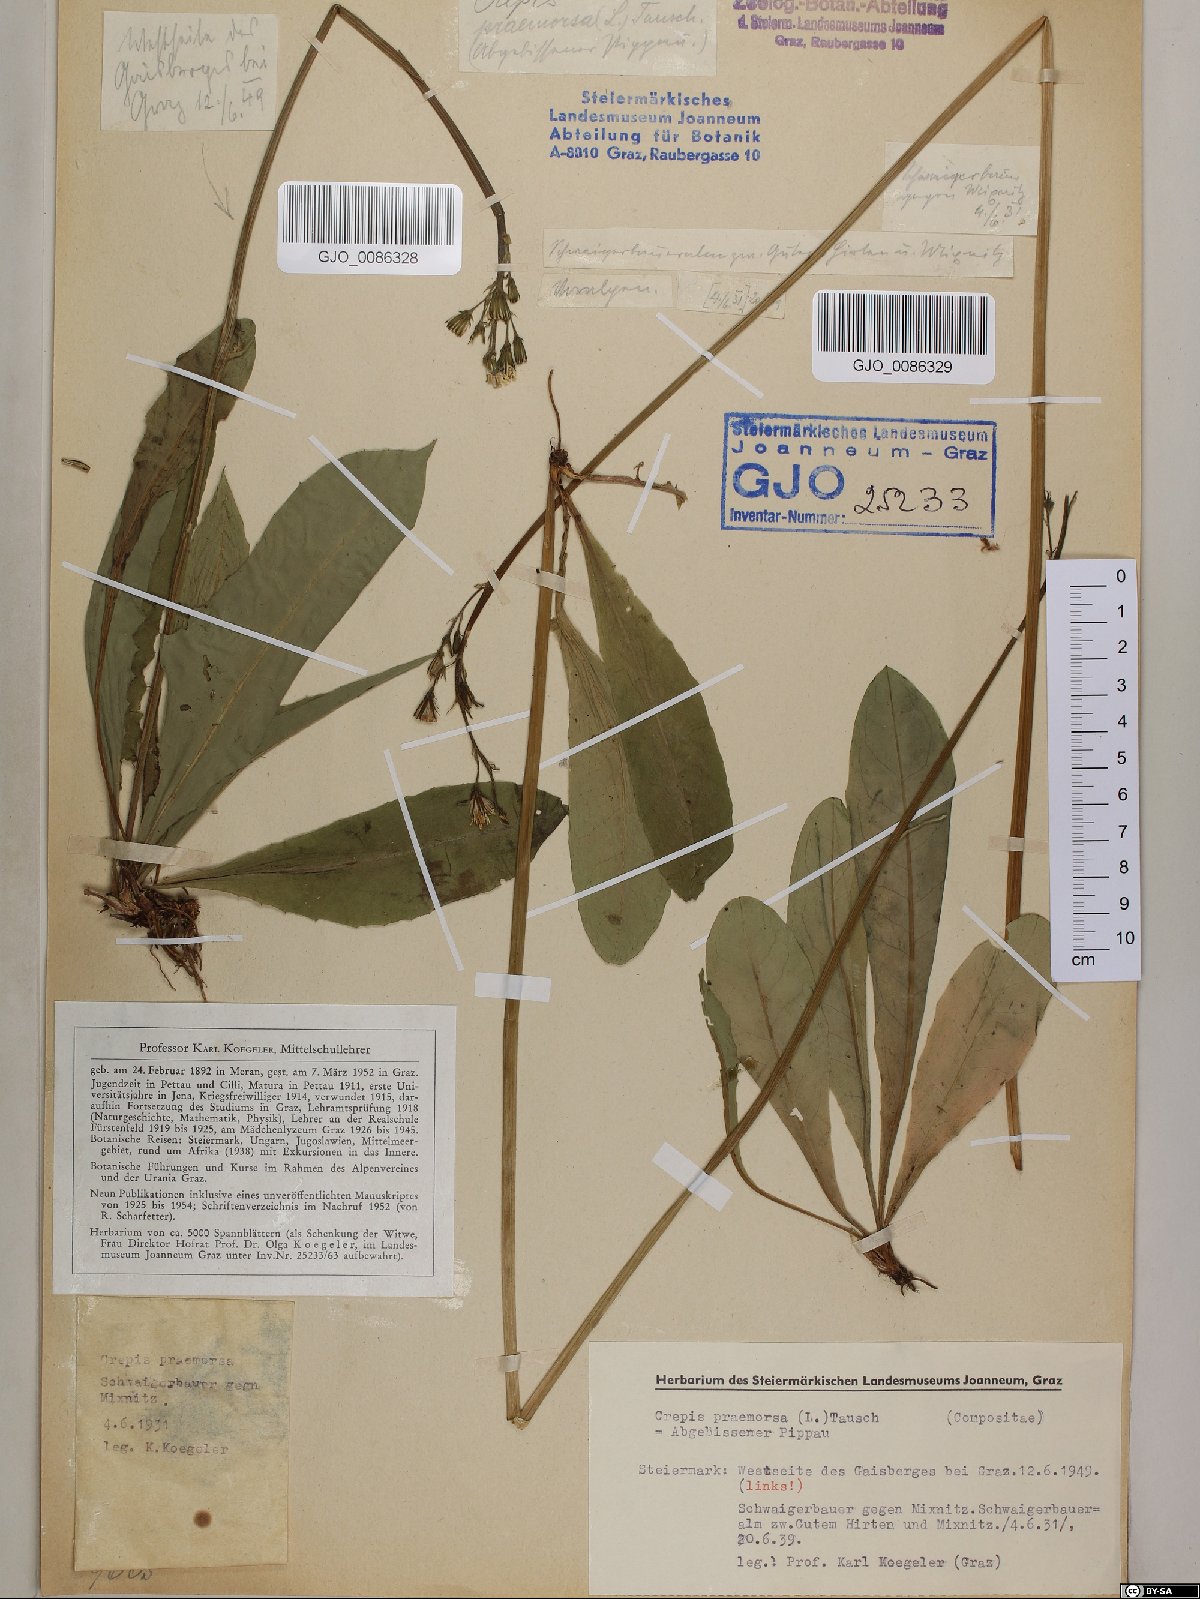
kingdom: Plantae
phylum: Tracheophyta
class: Magnoliopsida
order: Asterales
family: Asteraceae
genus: Crepis
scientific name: Crepis praemorsa
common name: Leafless hawk's-beard
